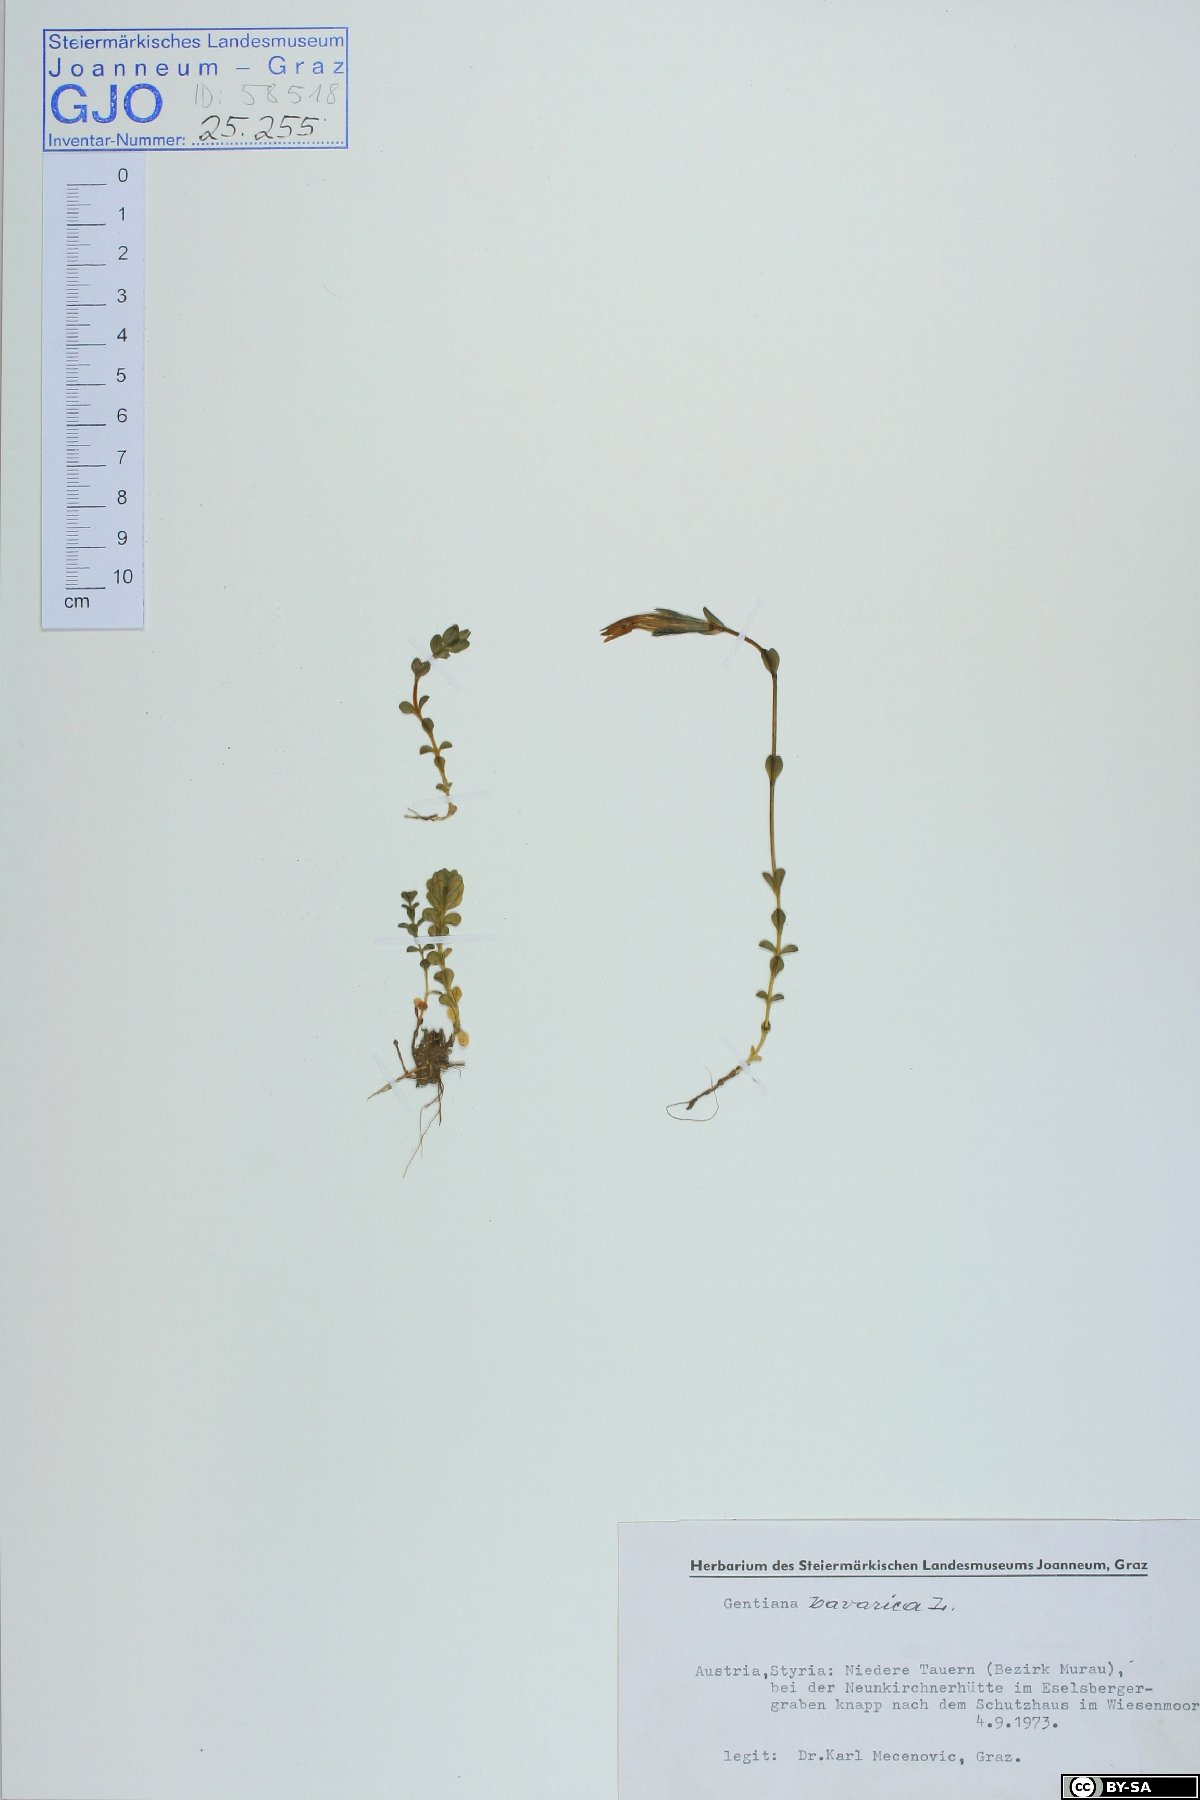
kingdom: Plantae
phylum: Tracheophyta
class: Magnoliopsida
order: Gentianales
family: Gentianaceae
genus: Gentiana
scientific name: Gentiana bavarica
